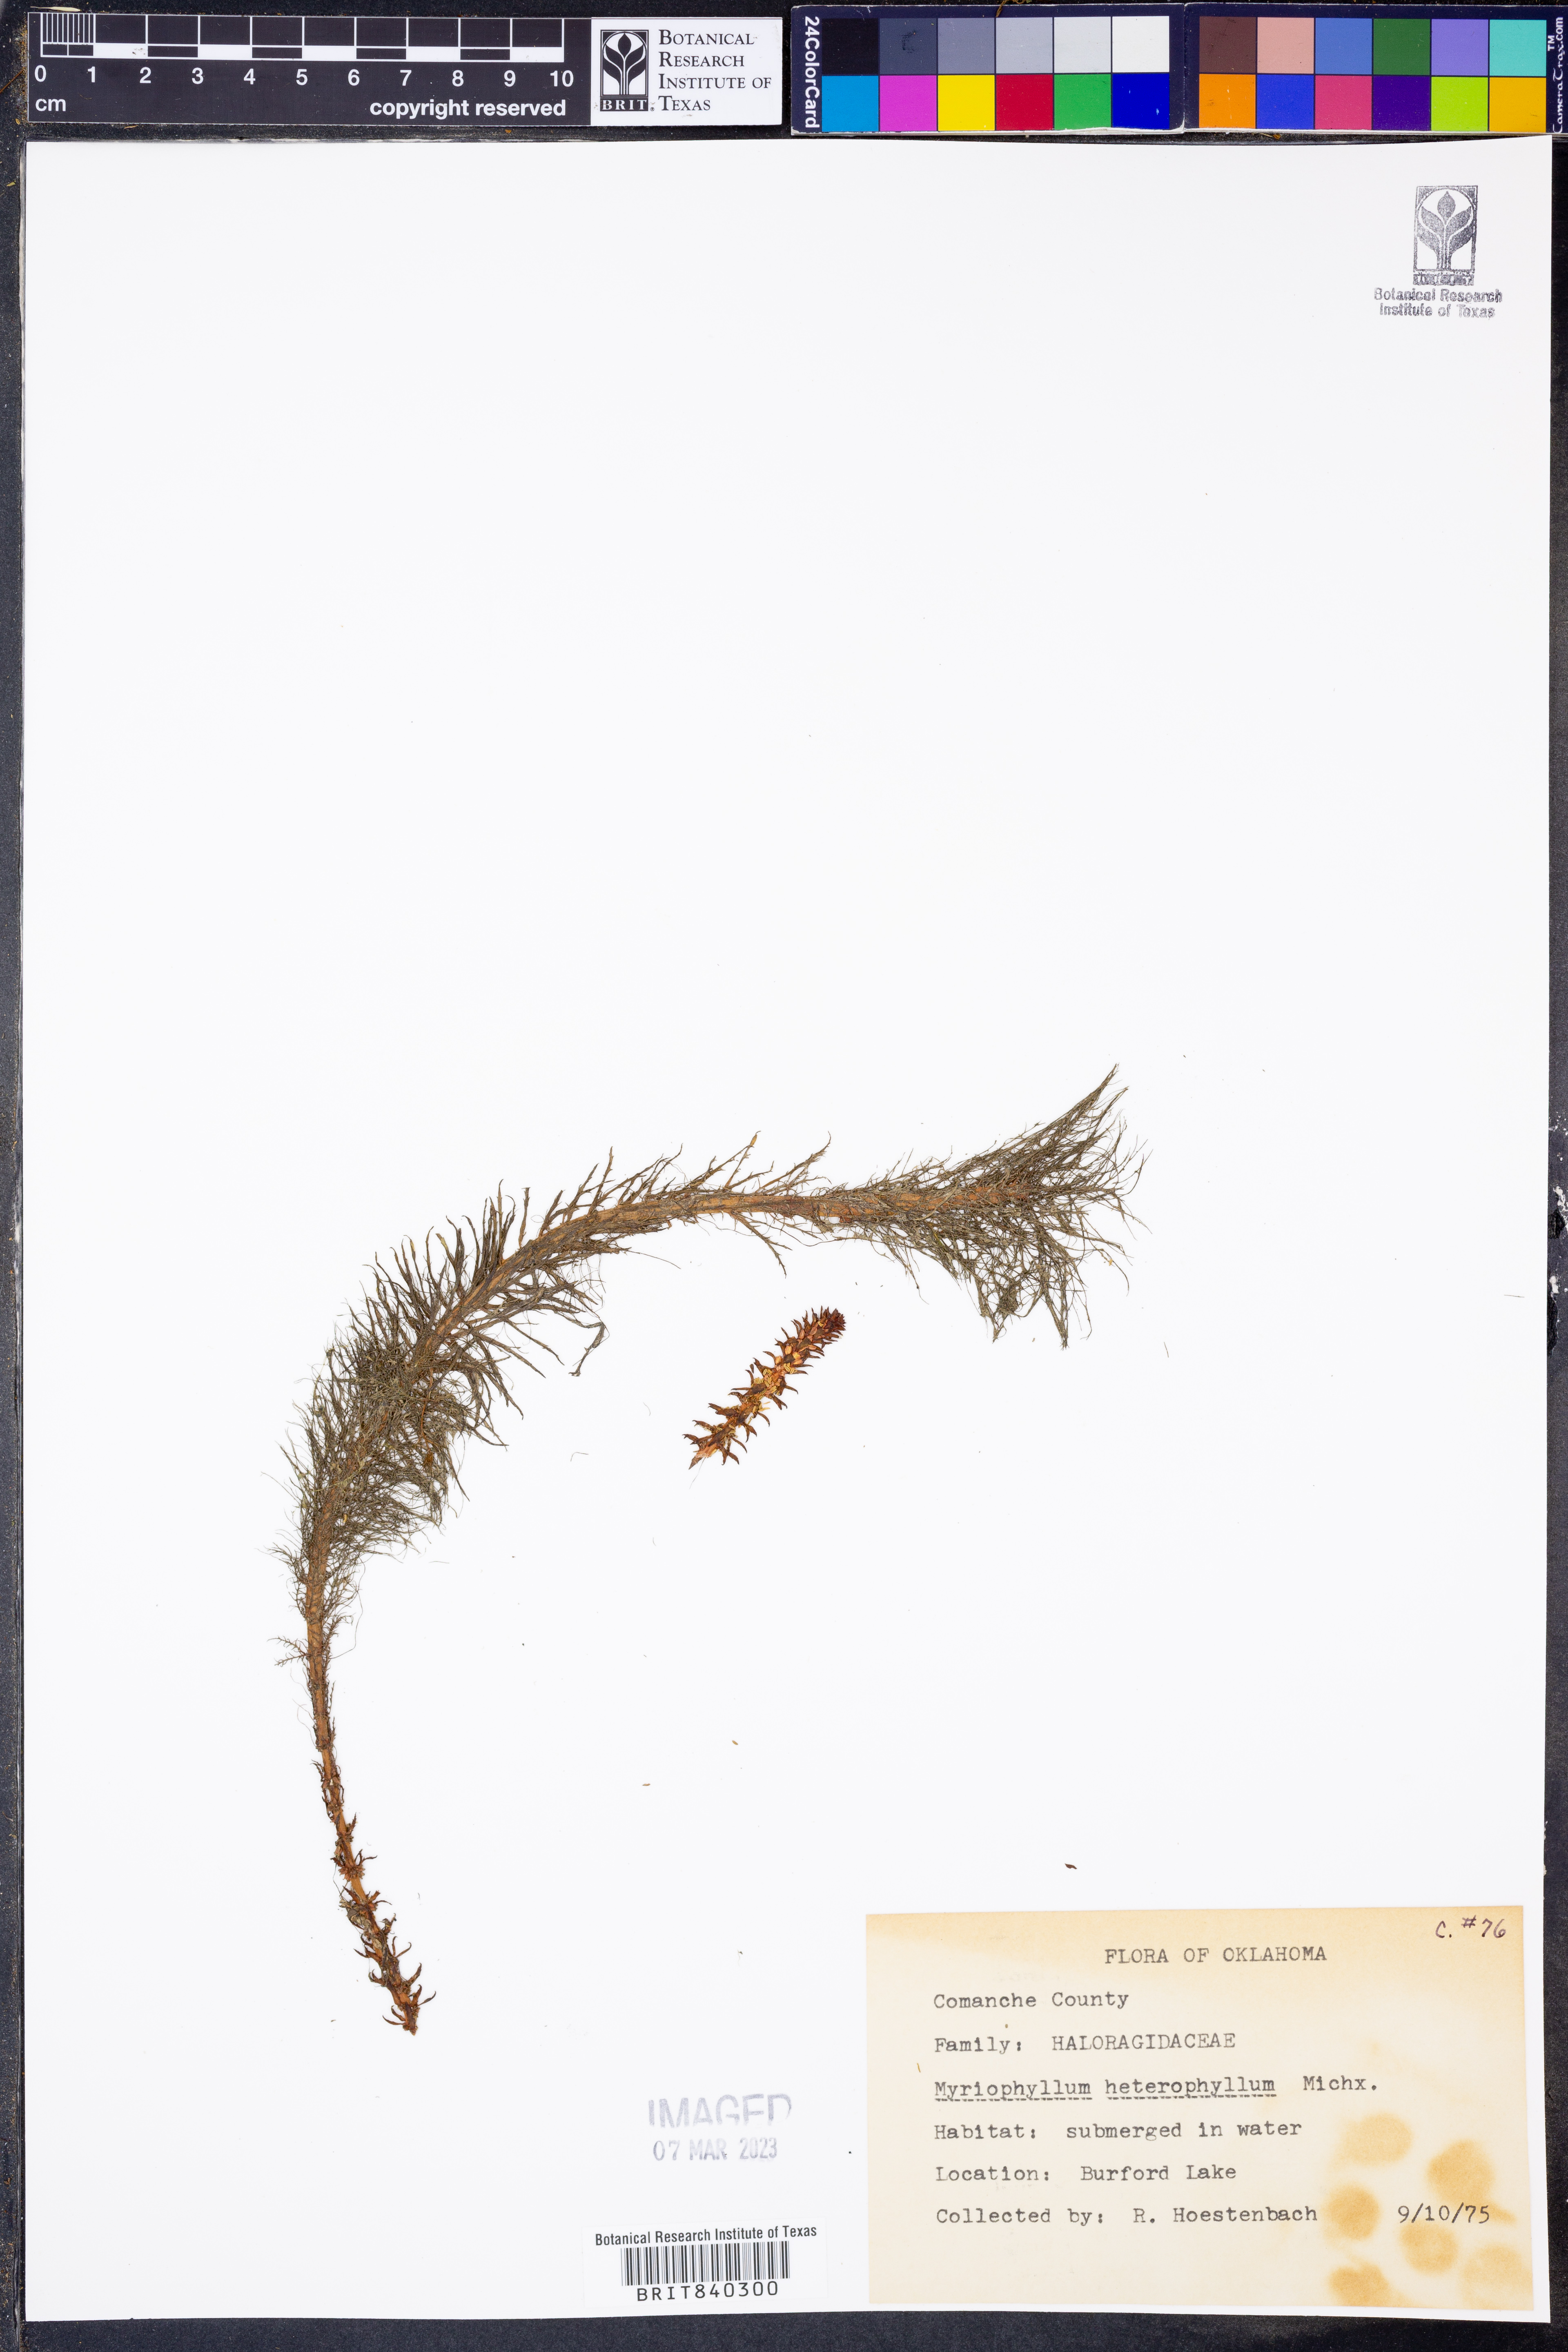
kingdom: Plantae
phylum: Tracheophyta
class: Magnoliopsida
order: Saxifragales
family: Haloragaceae
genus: Myriophyllum
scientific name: Myriophyllum heterophyllum
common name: Variable watermilfoil
